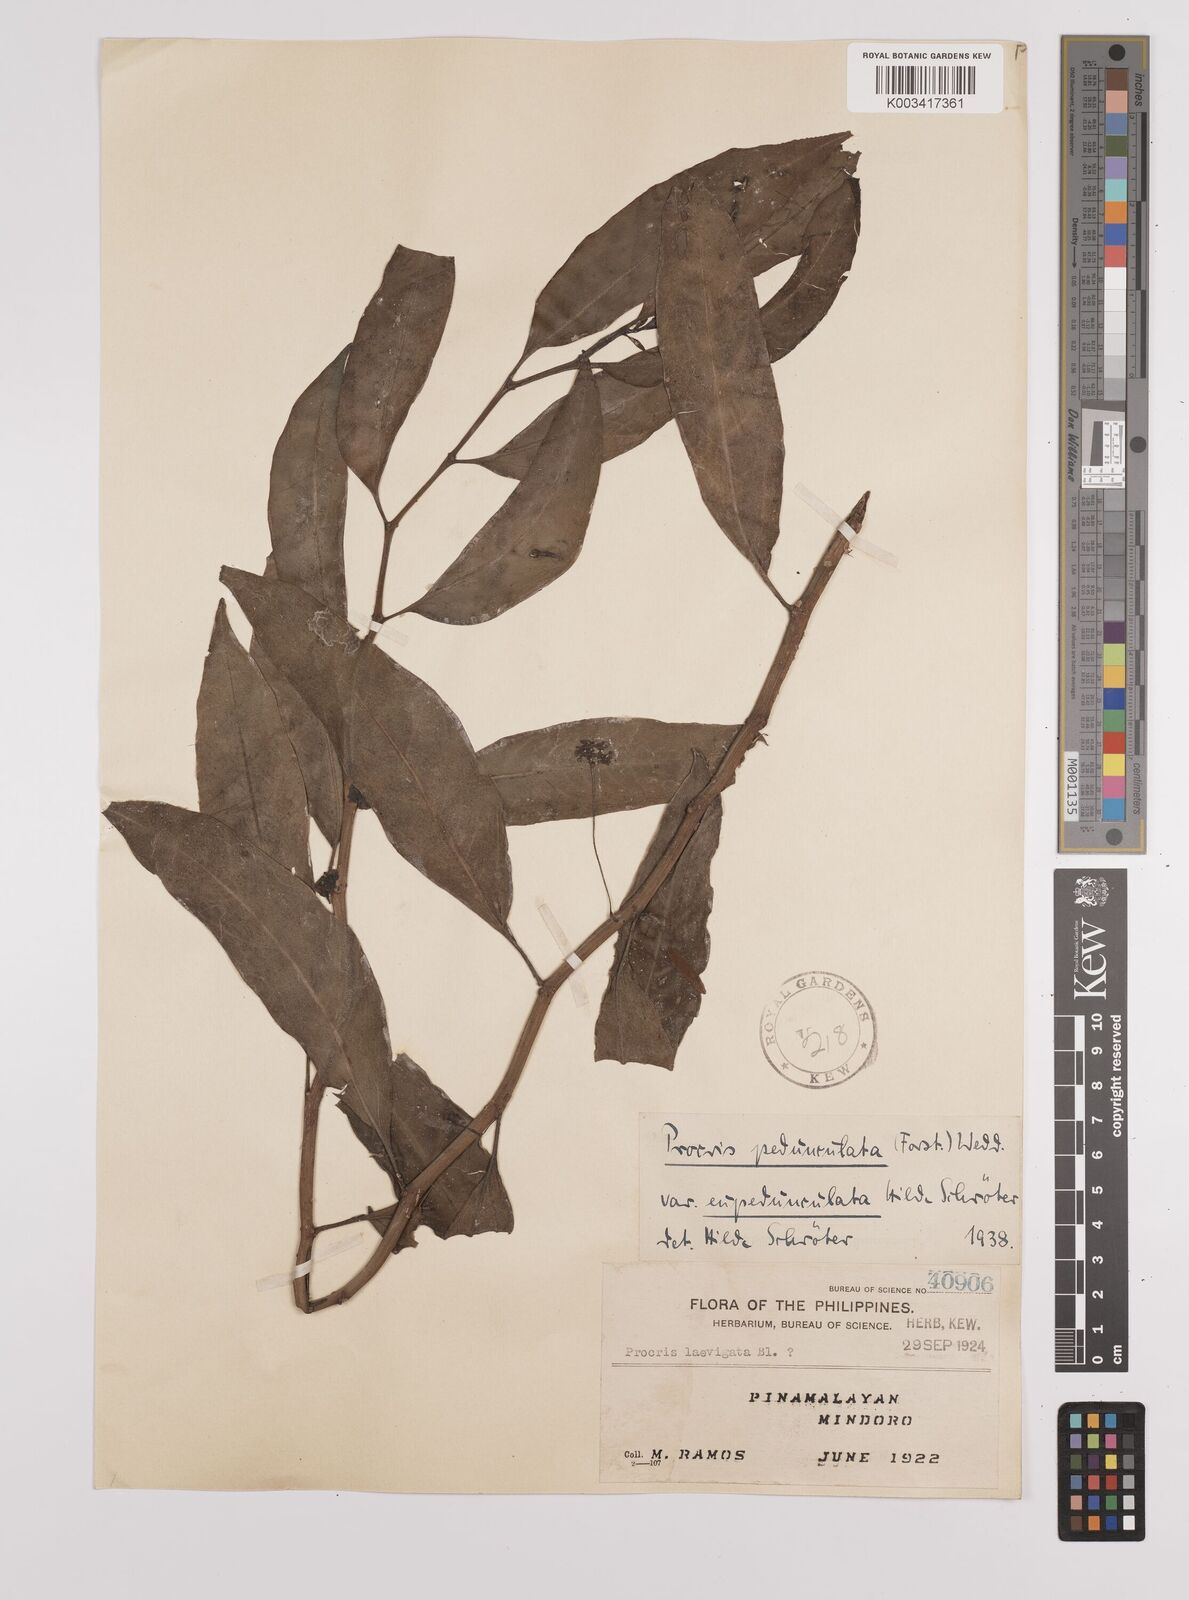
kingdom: Plantae
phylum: Tracheophyta
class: Magnoliopsida
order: Rosales
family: Urticaceae
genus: Procris
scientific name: Procris pedunculata
